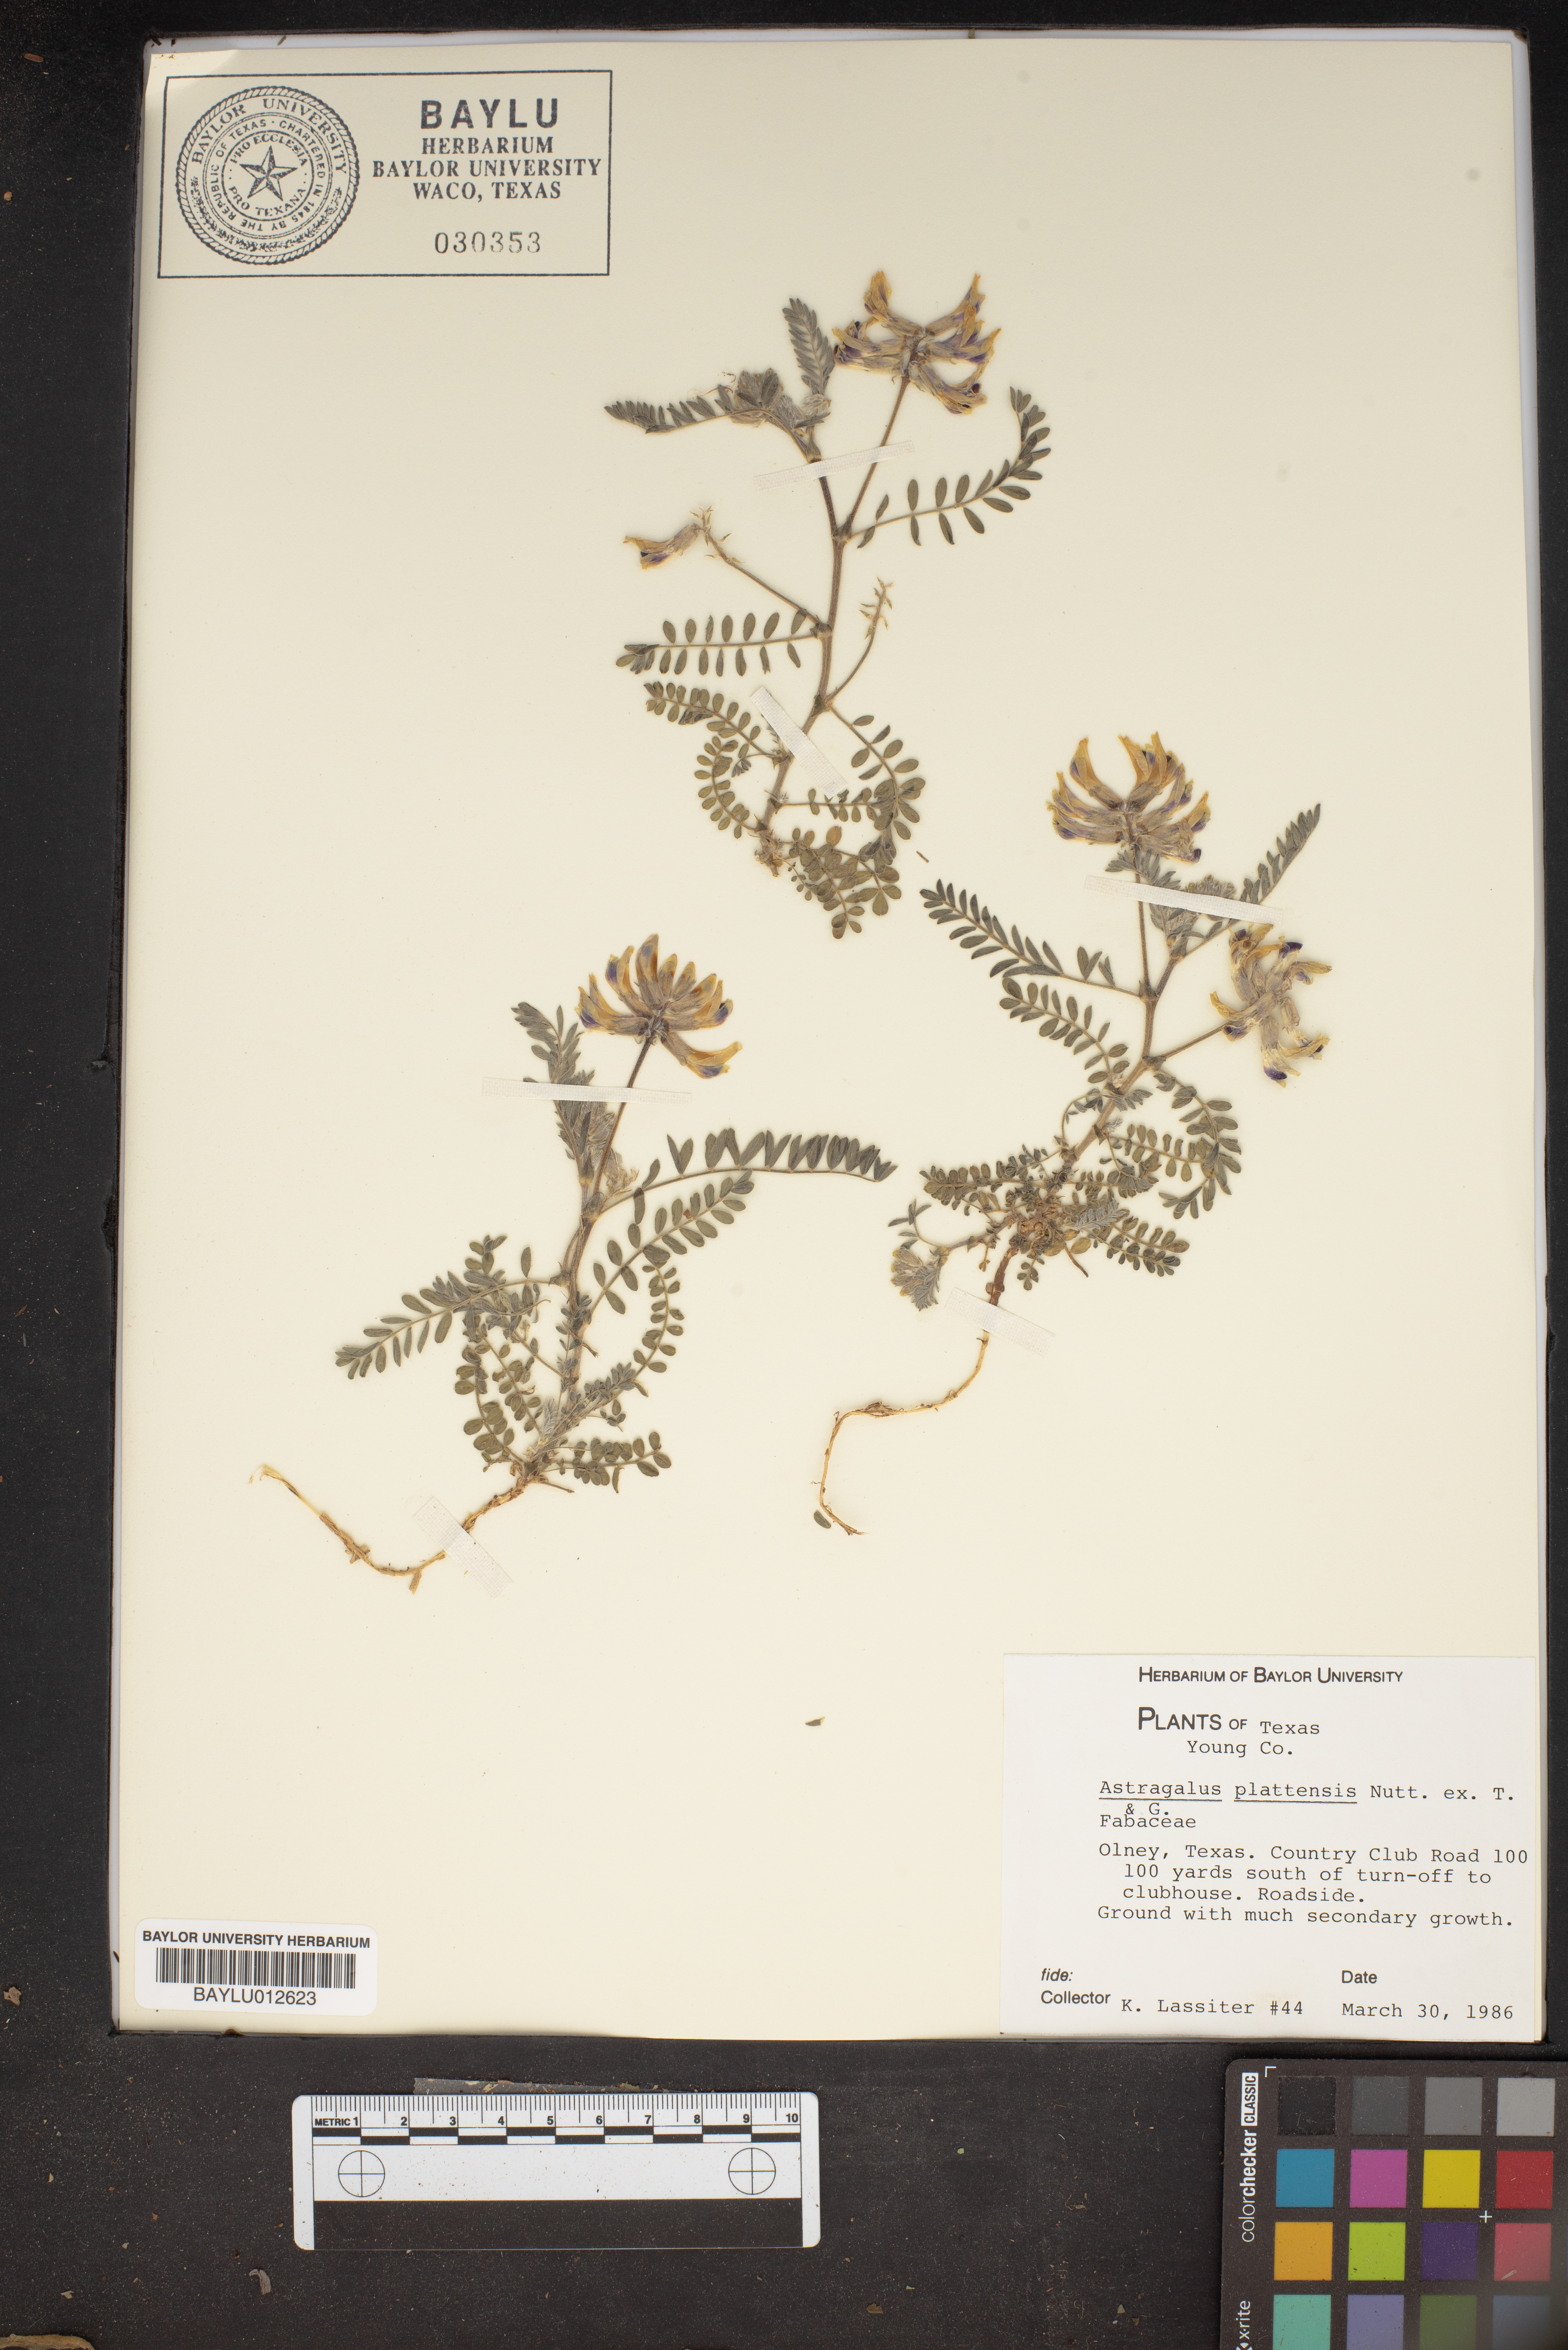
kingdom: Plantae
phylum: Tracheophyta
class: Magnoliopsida
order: Fabales
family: Fabaceae
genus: Astragalus
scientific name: Astragalus plattensis
